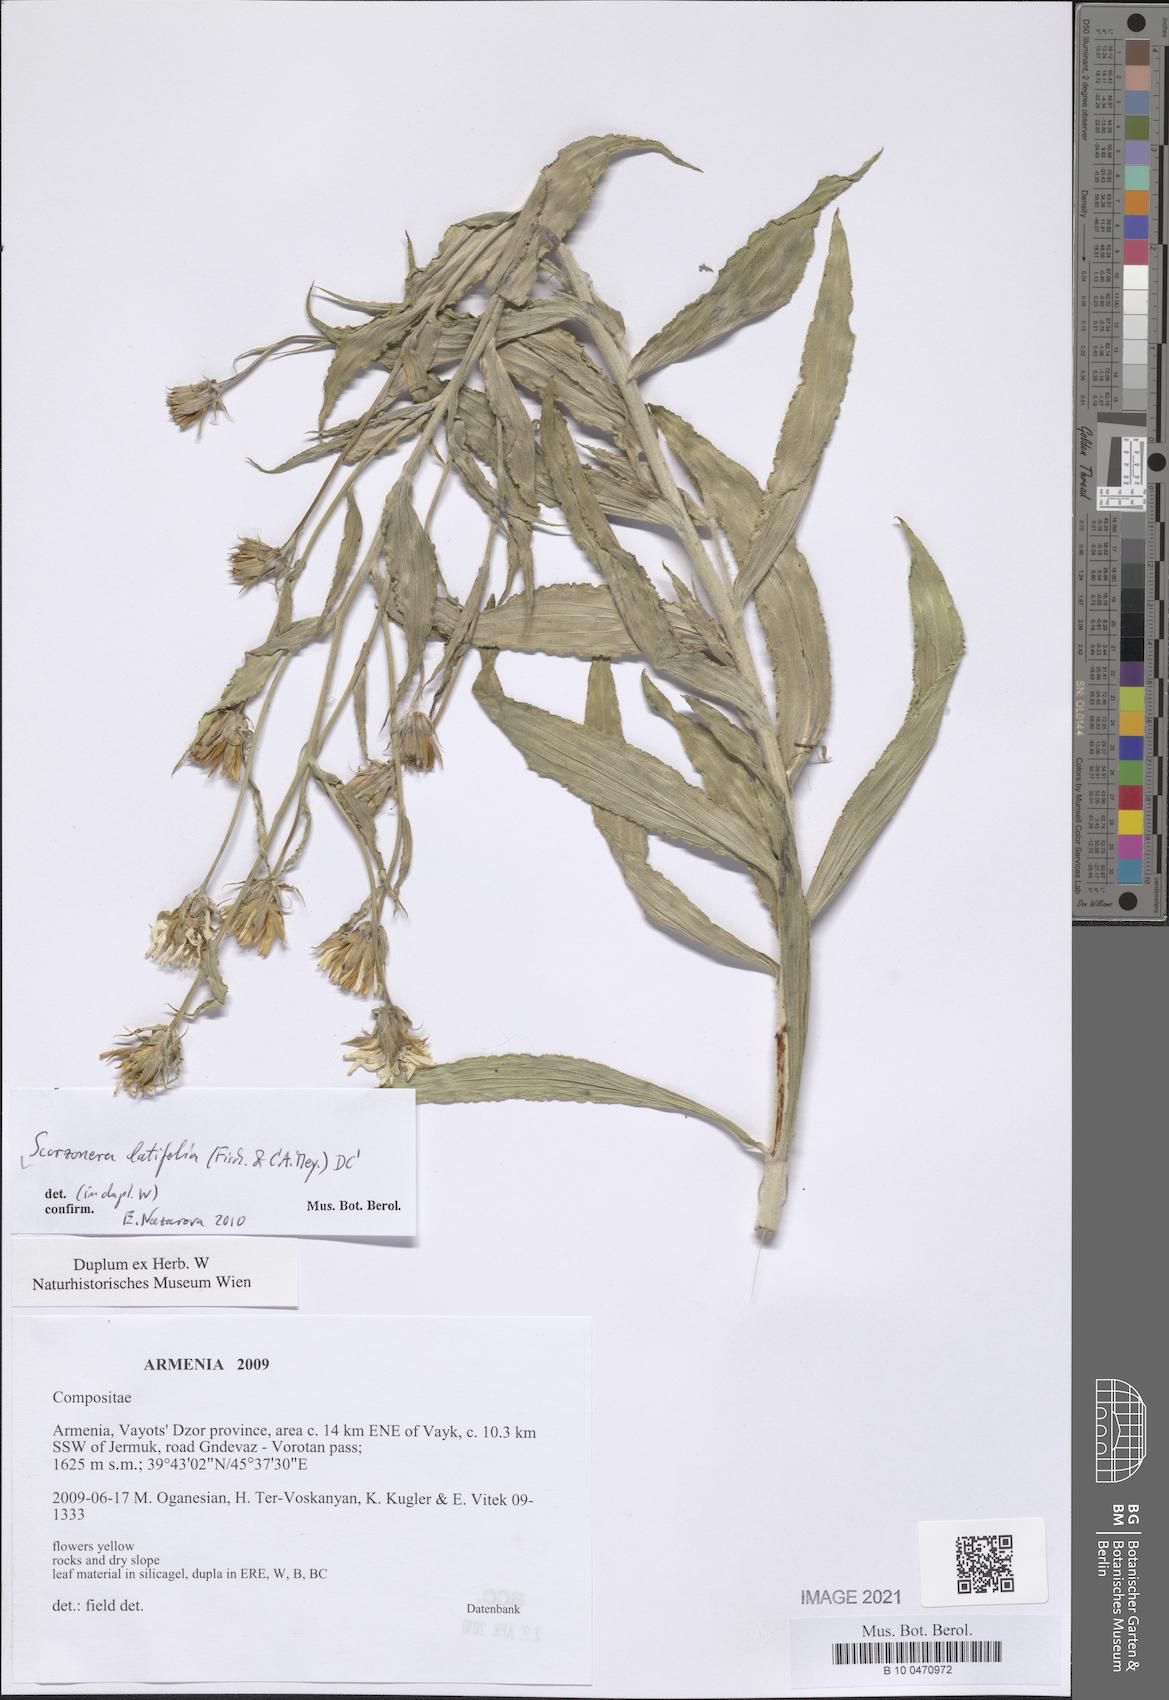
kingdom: Plantae
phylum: Tracheophyta
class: Magnoliopsida
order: Asterales
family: Asteraceae
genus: Guneria
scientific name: Guneria latifolia
